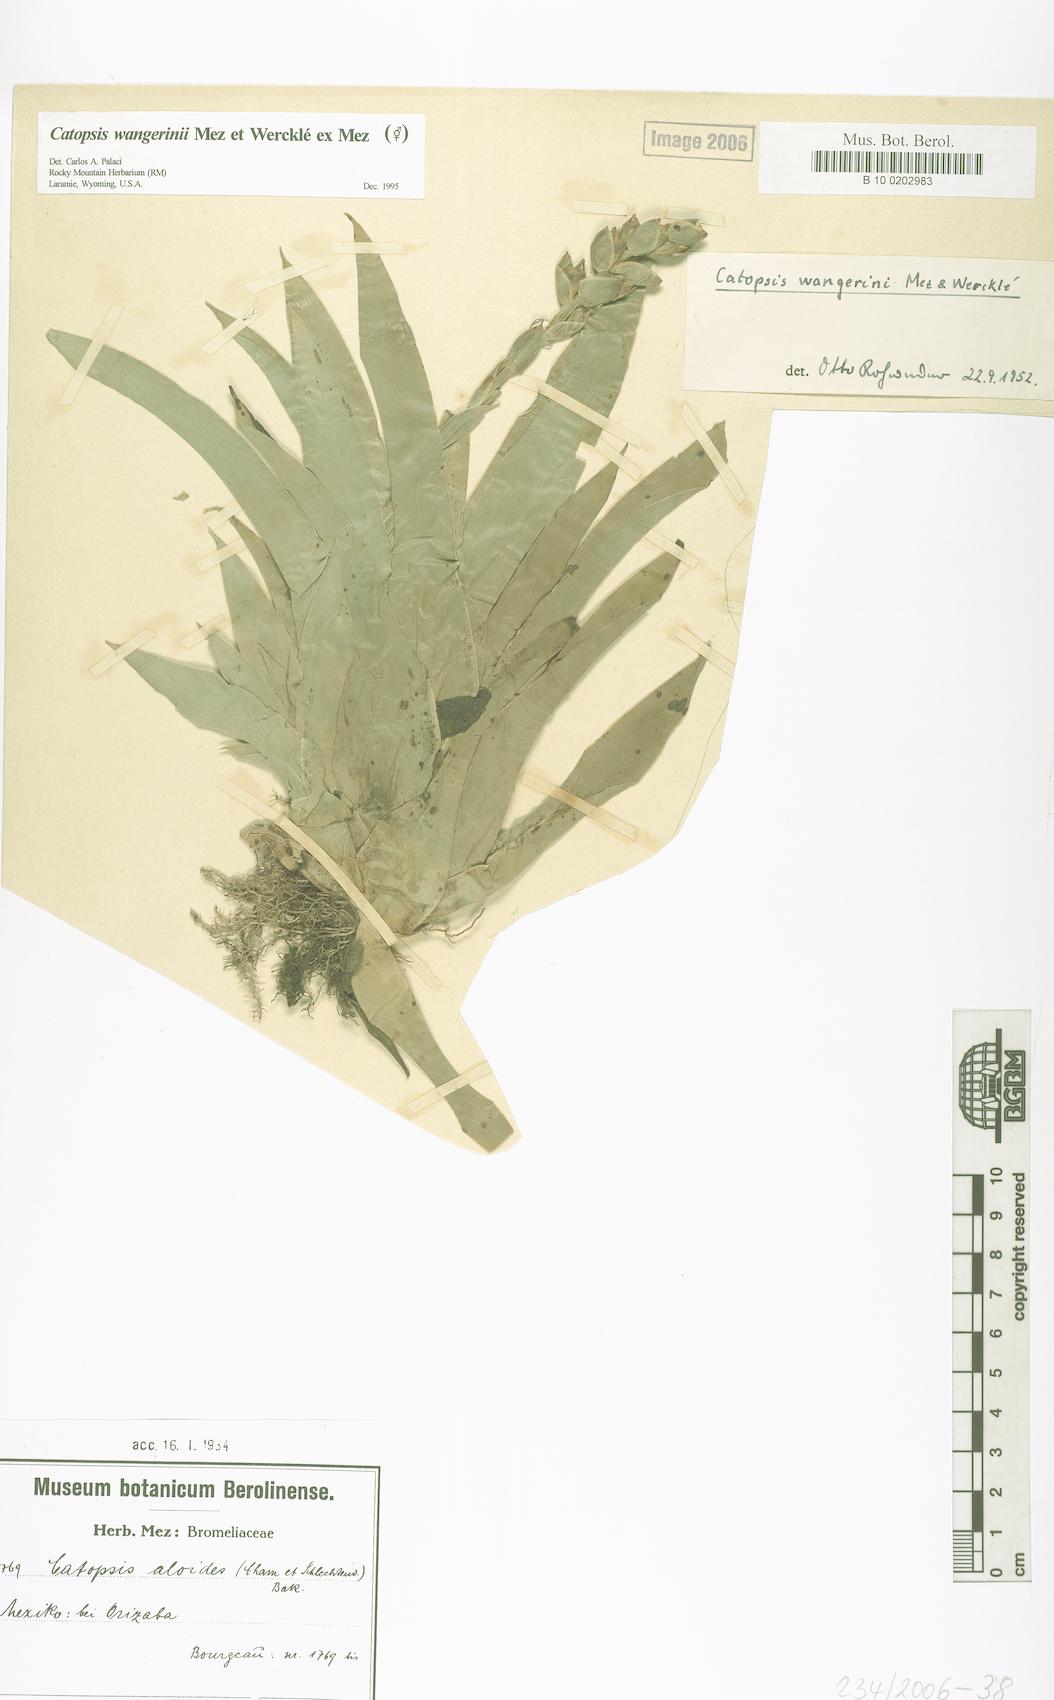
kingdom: Plantae
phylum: Tracheophyta
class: Liliopsida
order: Poales
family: Bromeliaceae
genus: Catopsis
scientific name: Catopsis sessiliflora
